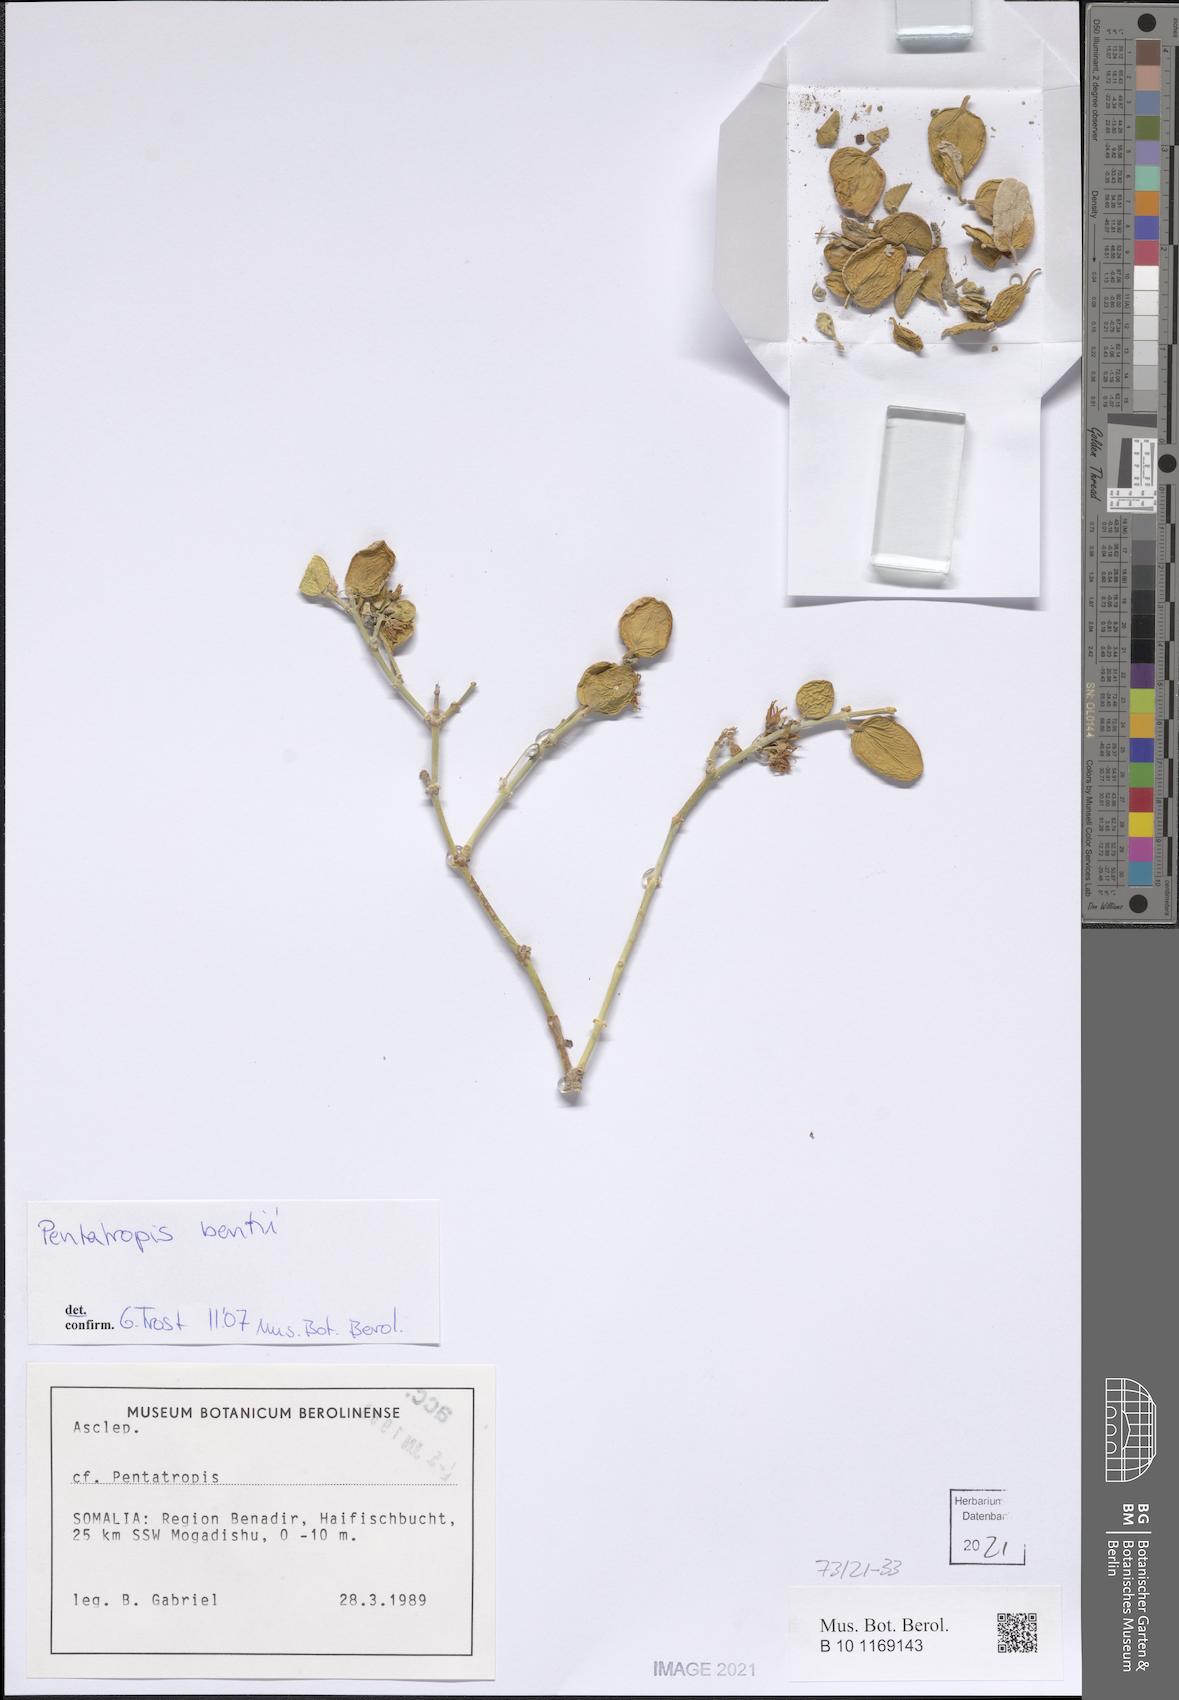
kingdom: Plantae
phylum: Tracheophyta
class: Magnoliopsida
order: Gentianales
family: Apocynaceae
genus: Pentatropis
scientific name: Pentatropis bentii
